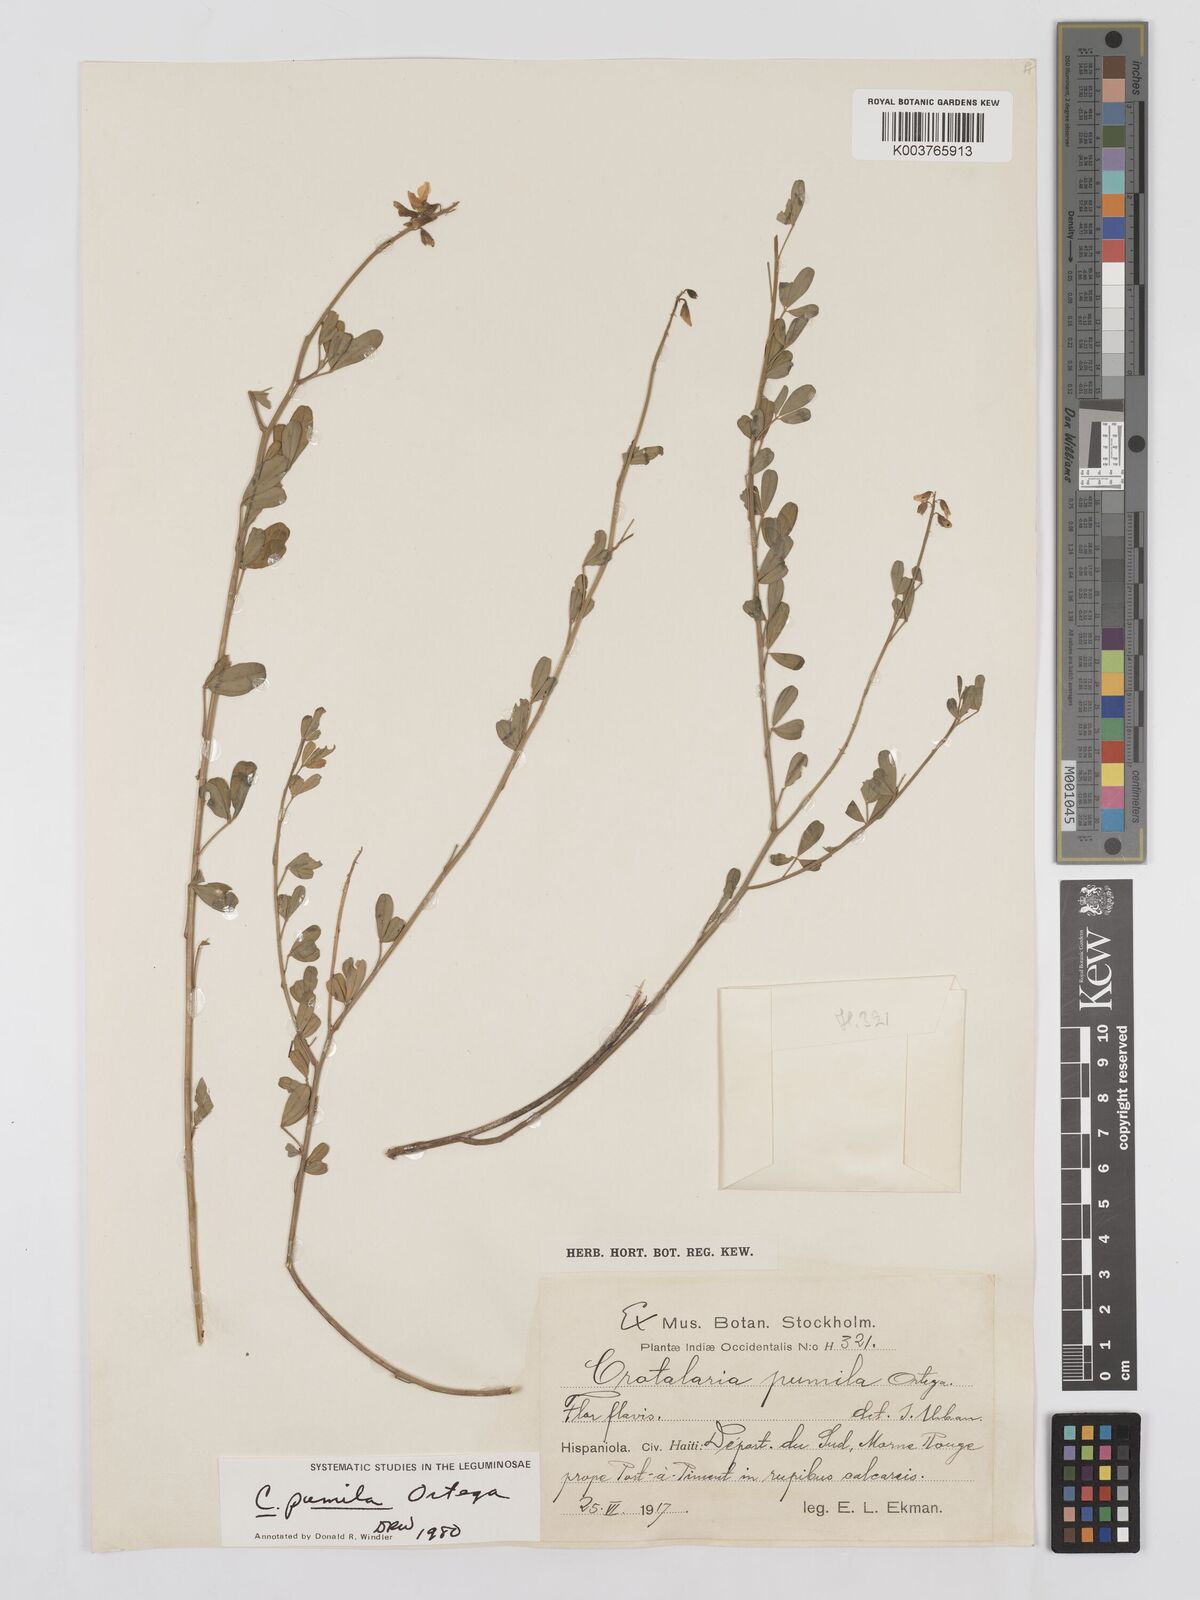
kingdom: Plantae
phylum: Tracheophyta
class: Magnoliopsida
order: Fabales
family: Fabaceae
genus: Crotalaria
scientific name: Crotalaria pumila
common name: Low rattlebox
